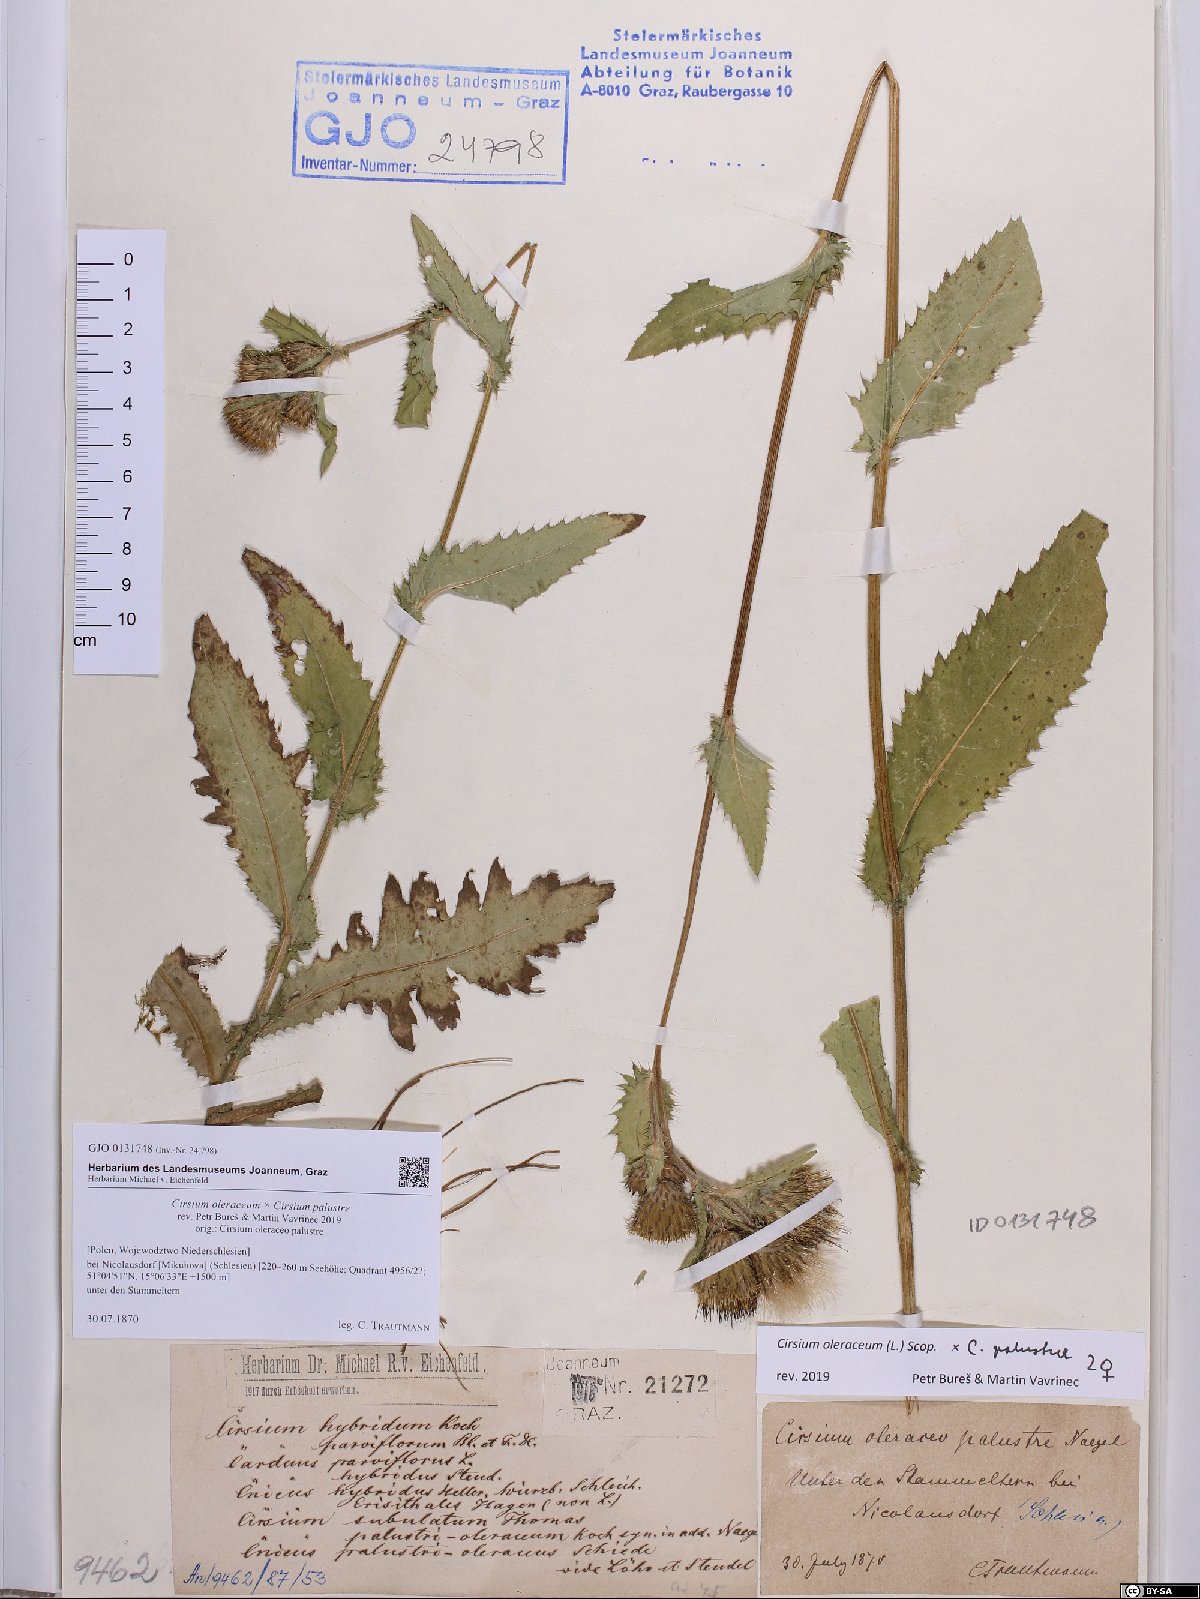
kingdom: Plantae
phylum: Tracheophyta
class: Magnoliopsida
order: Asterales
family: Asteraceae
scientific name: Asteraceae
